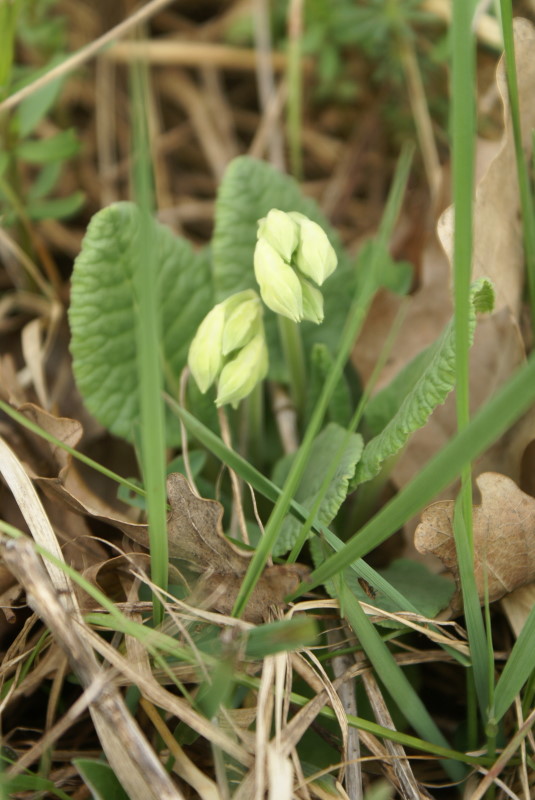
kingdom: Plantae
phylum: Tracheophyta
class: Magnoliopsida
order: Ericales
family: Primulaceae
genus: Primula
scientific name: Primula veris
